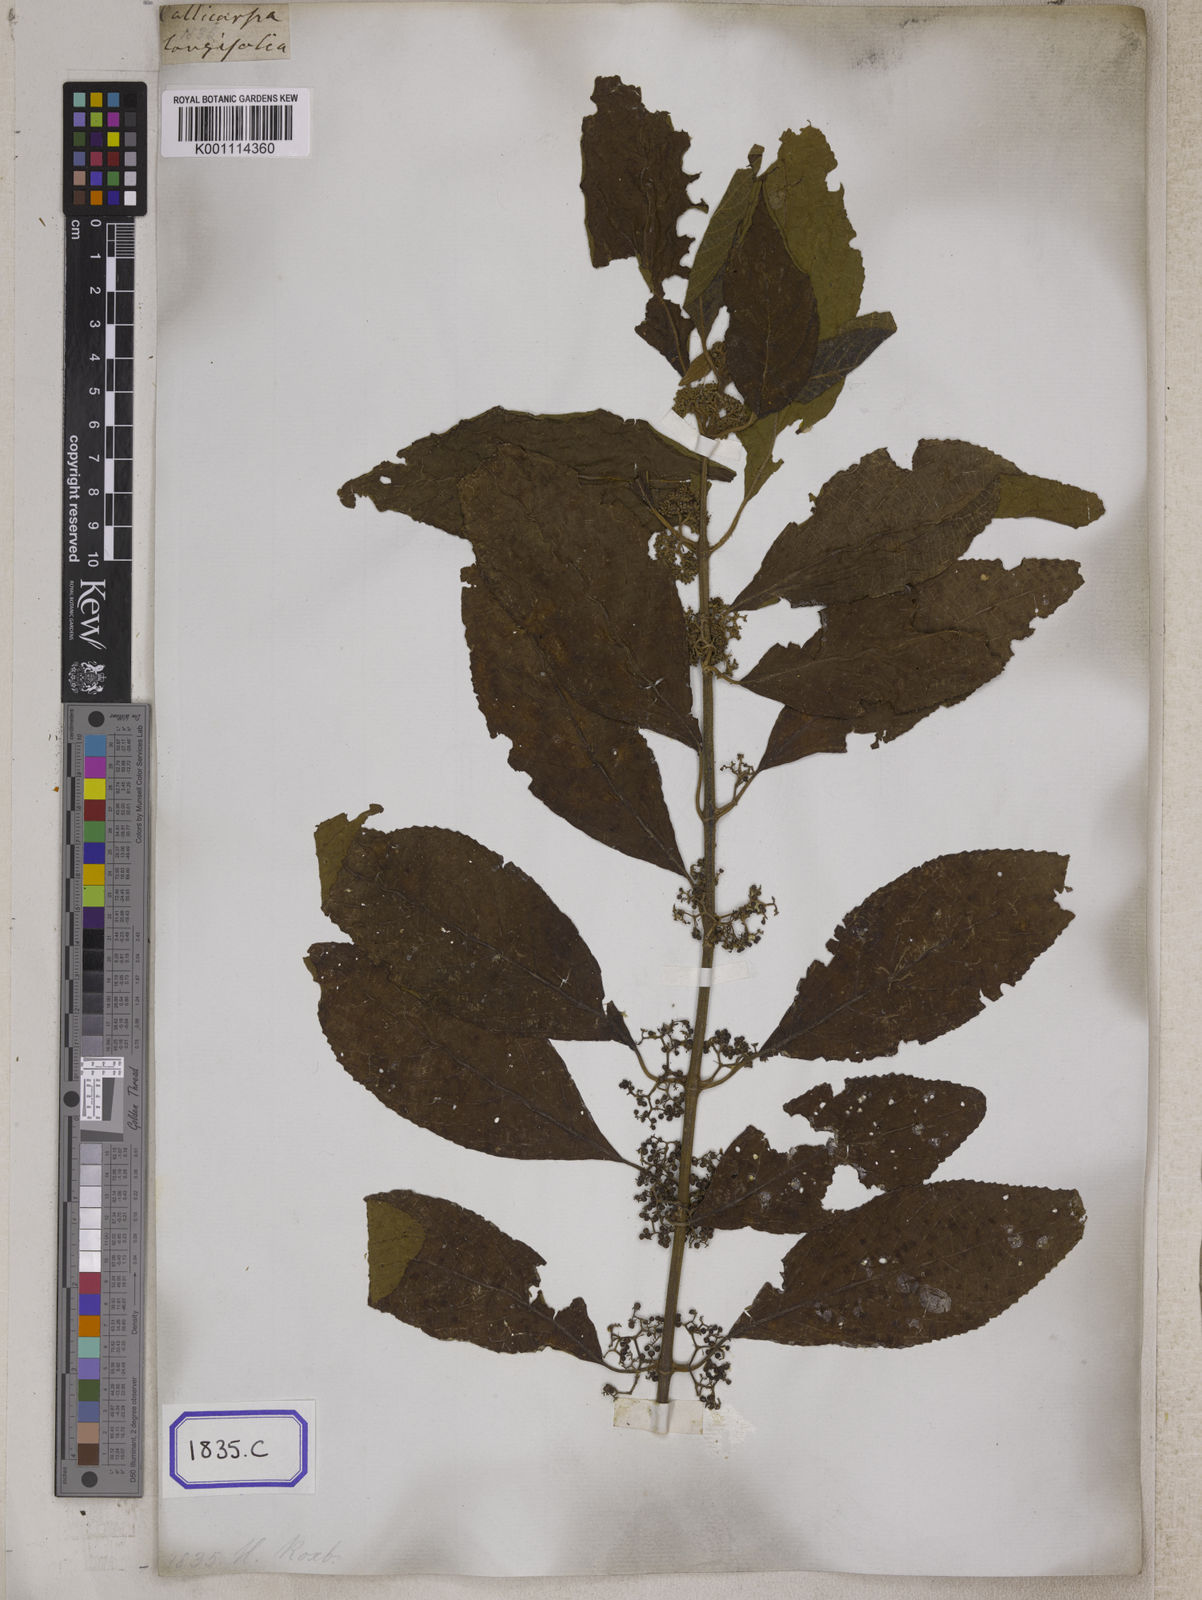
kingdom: Plantae
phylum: Tracheophyta
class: Magnoliopsida
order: Lamiales
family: Lamiaceae
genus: Callicarpa
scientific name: Callicarpa longifolia
